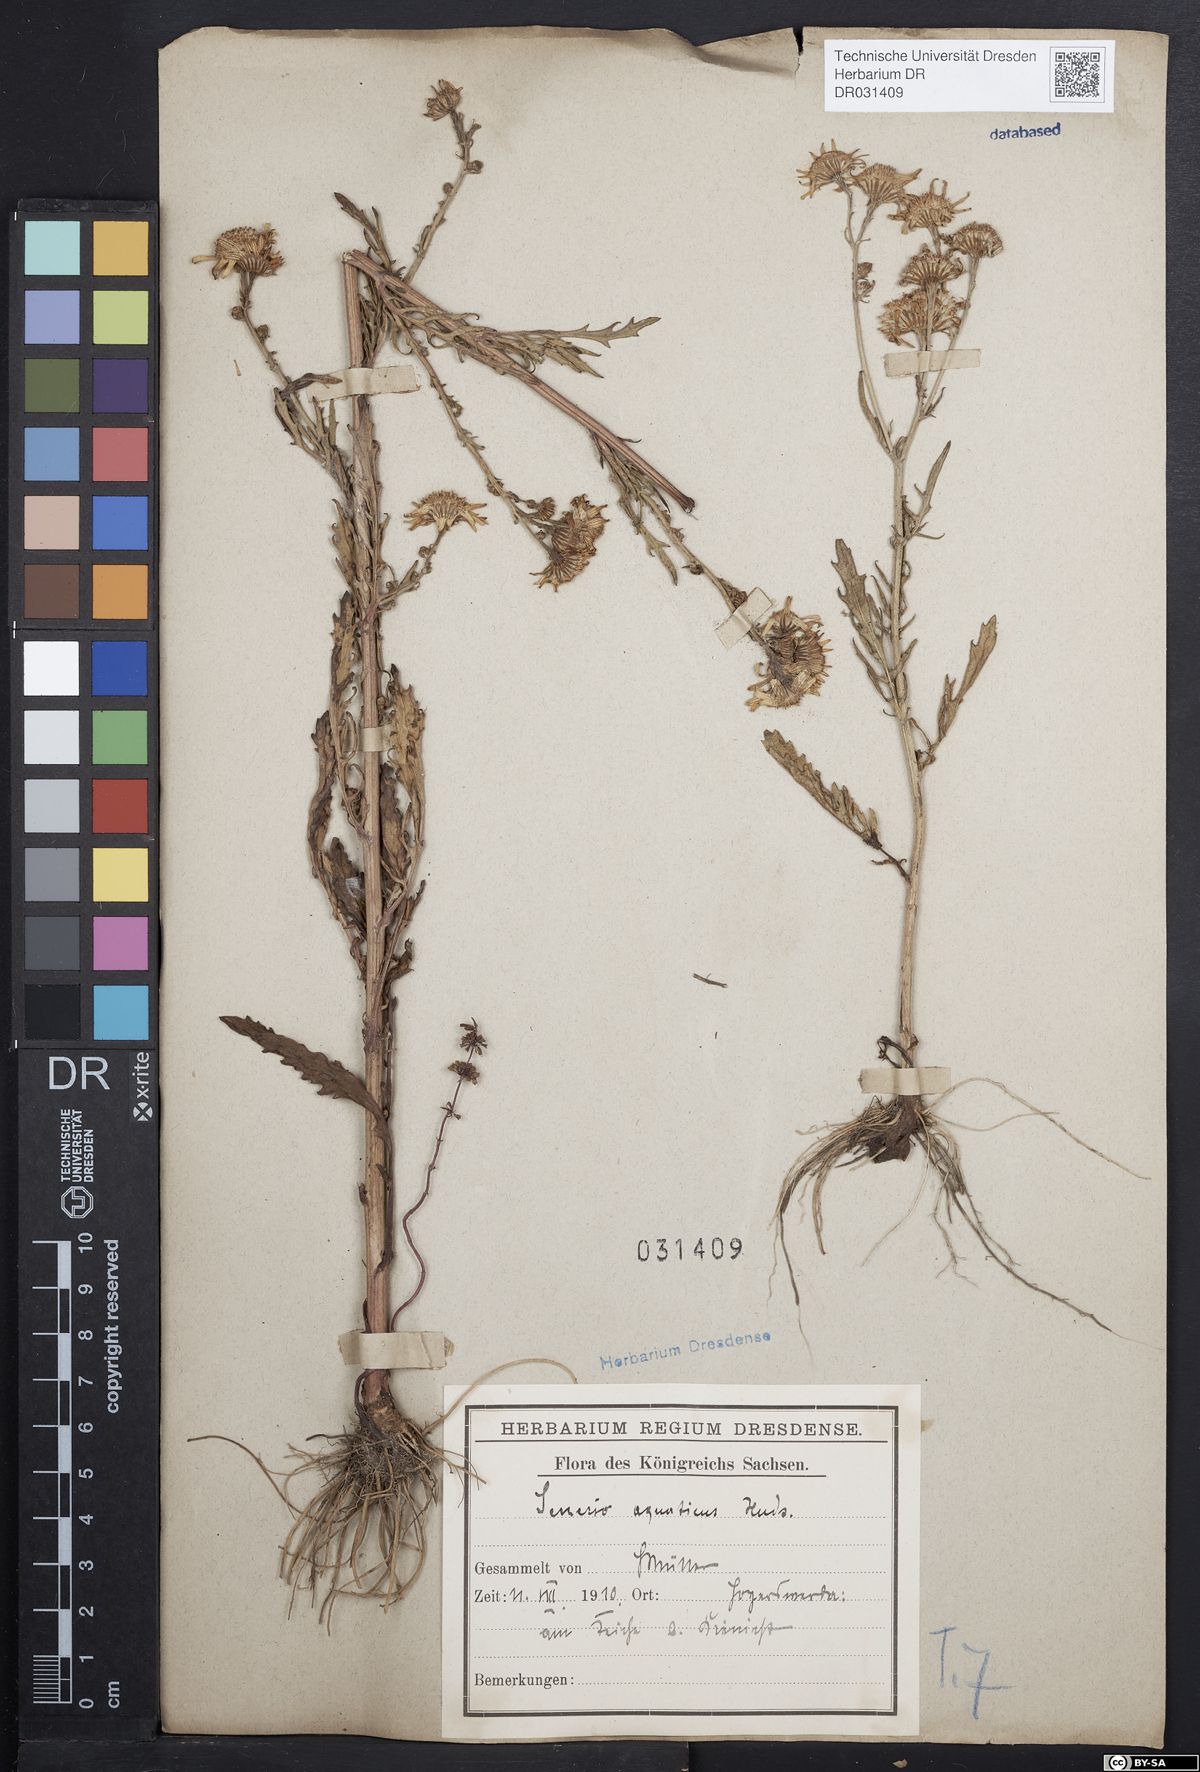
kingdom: Plantae
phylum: Tracheophyta
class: Magnoliopsida
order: Asterales
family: Asteraceae
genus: Jacobaea
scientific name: Jacobaea aquatica
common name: Water ragwort
